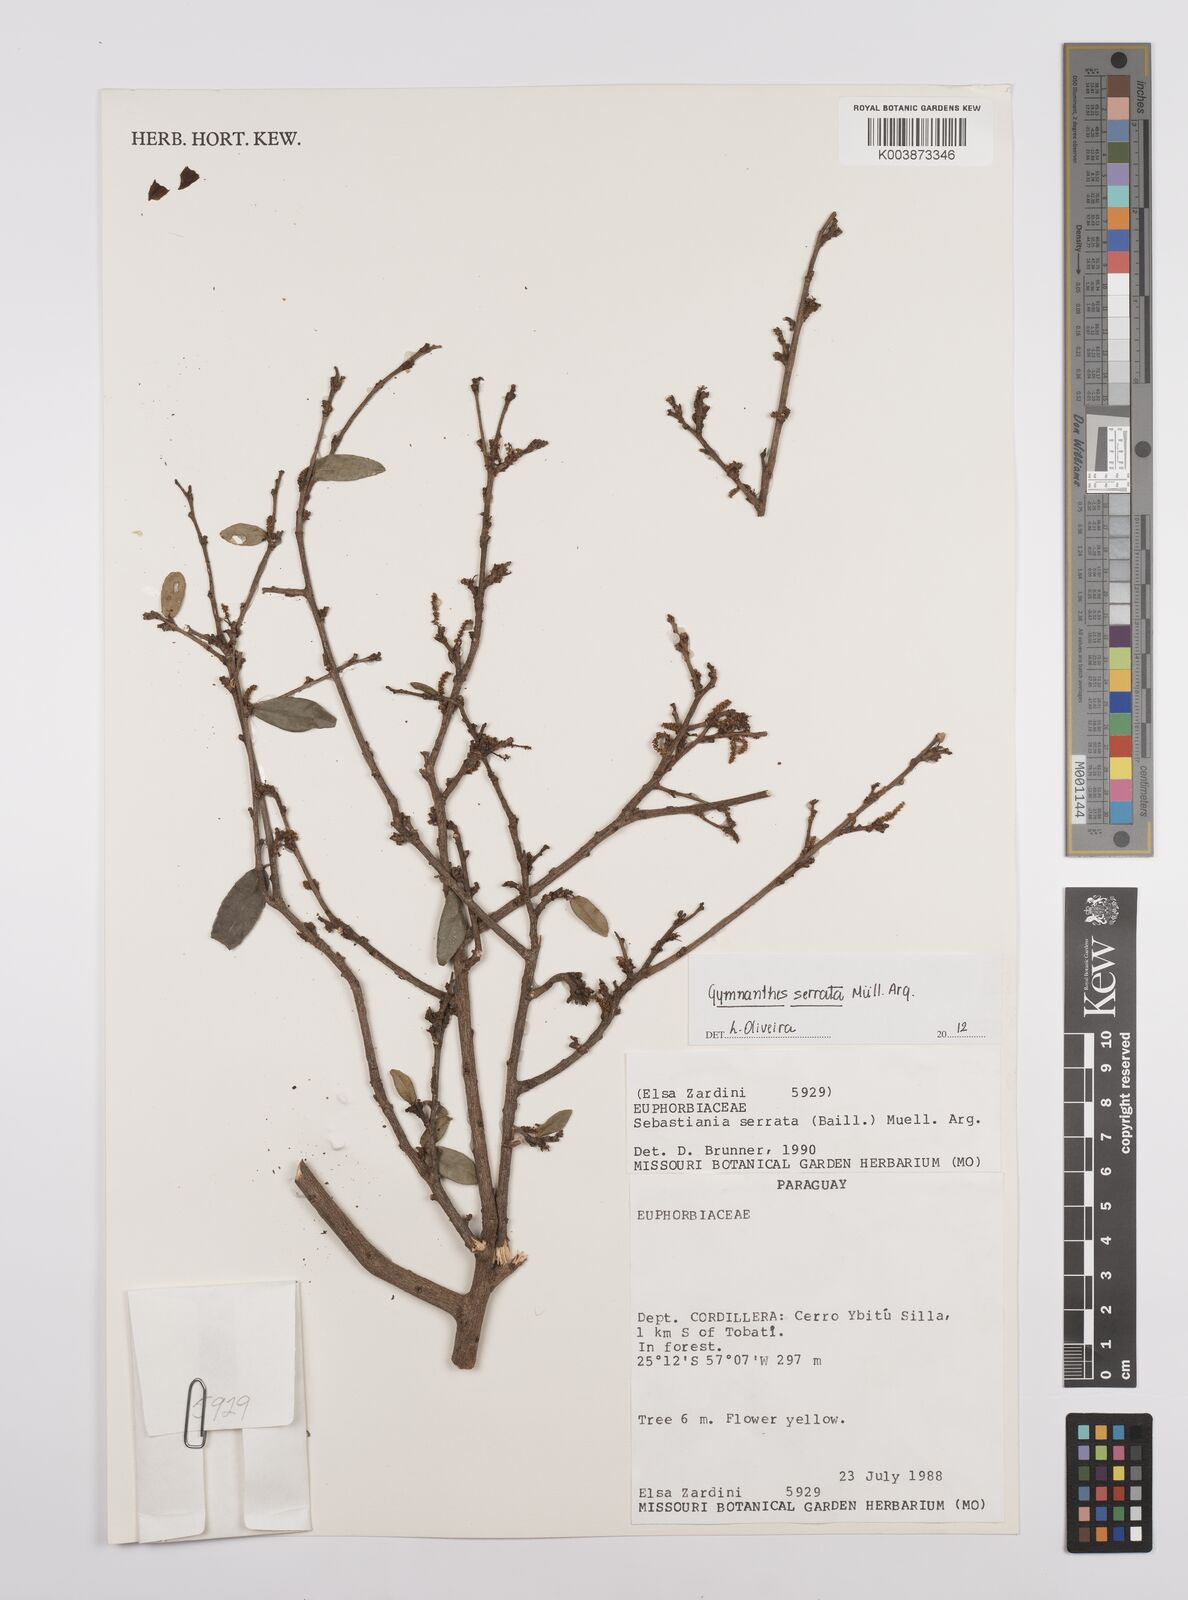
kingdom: Plantae
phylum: Tracheophyta
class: Magnoliopsida
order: Malpighiales
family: Euphorbiaceae
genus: Sebastiania
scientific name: Sebastiania serrata
